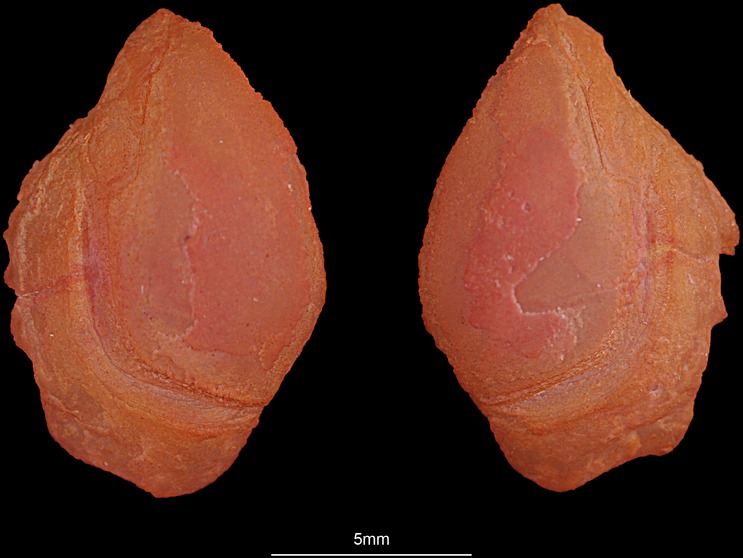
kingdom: Animalia
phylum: Chordata
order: Perciformes
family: Haemulidae
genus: Pomadasys
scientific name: Pomadasys commersonnii
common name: Smallspotted grunter
